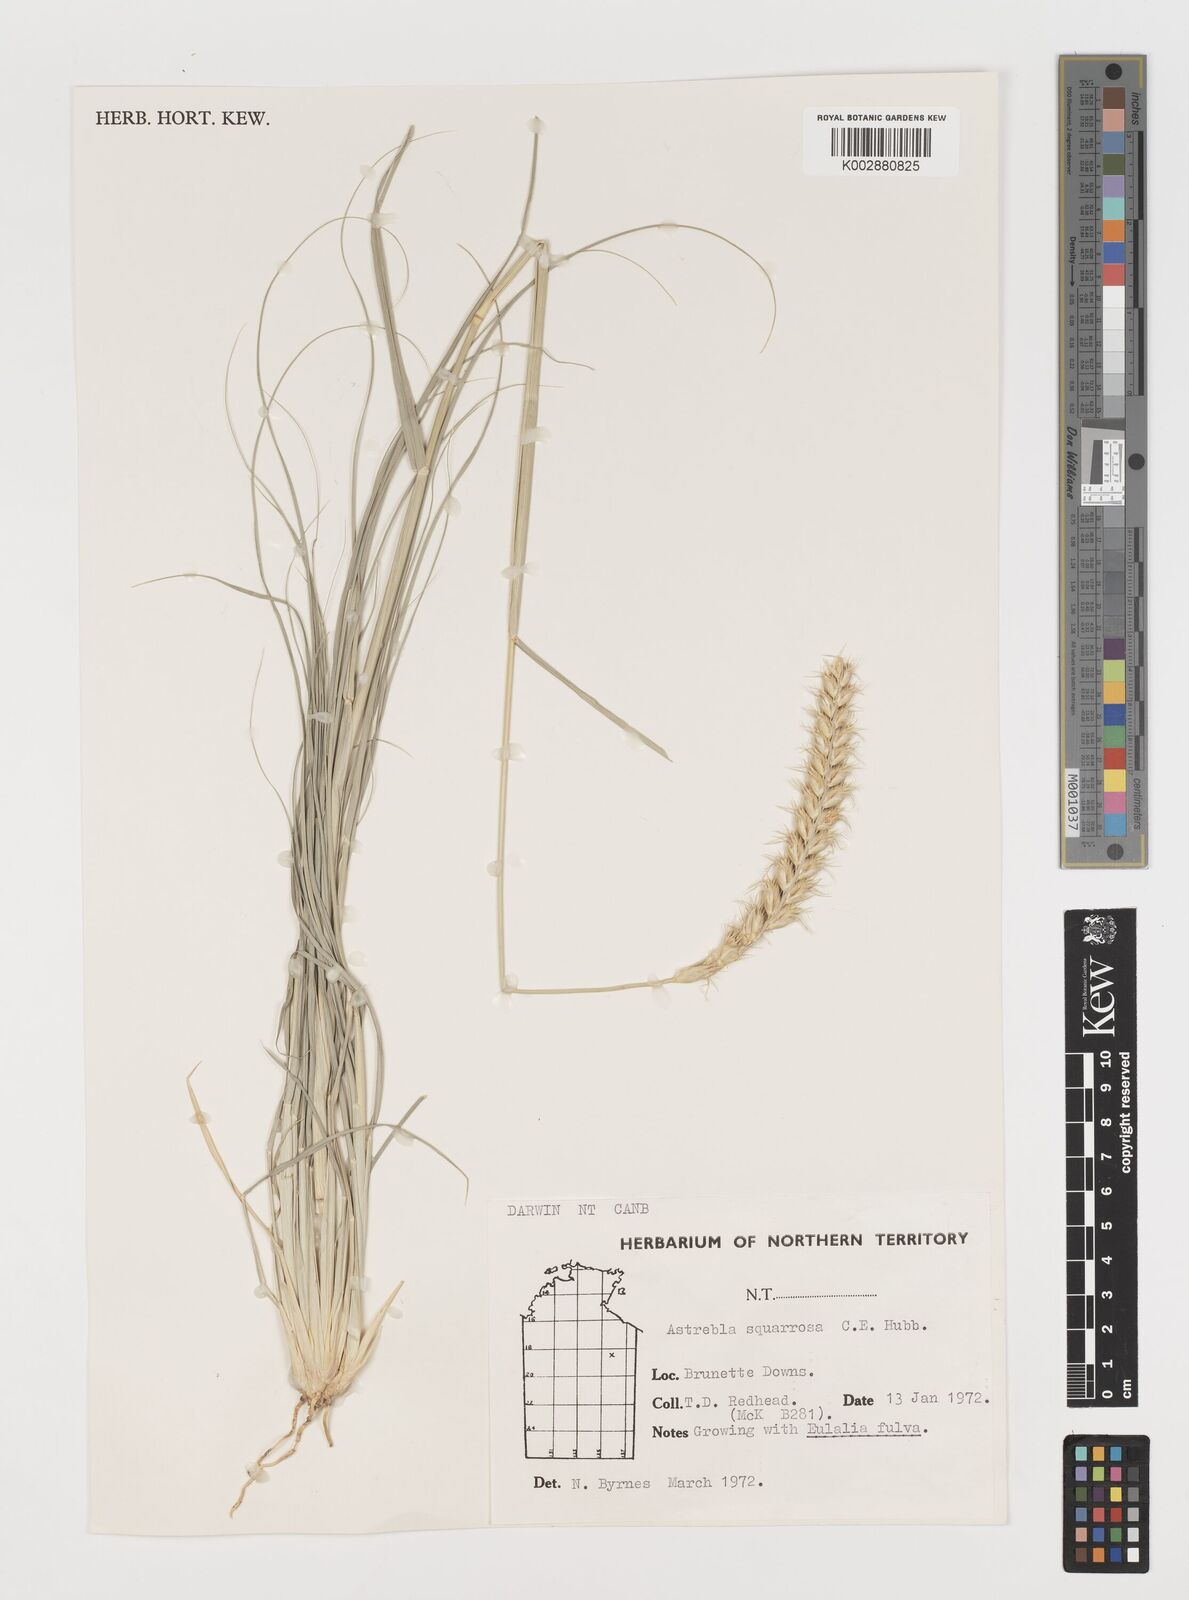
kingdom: Plantae
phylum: Tracheophyta
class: Liliopsida
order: Poales
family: Poaceae
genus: Astrebla
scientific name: Astrebla squarrosa
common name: Wheat-ear mitchell grass
